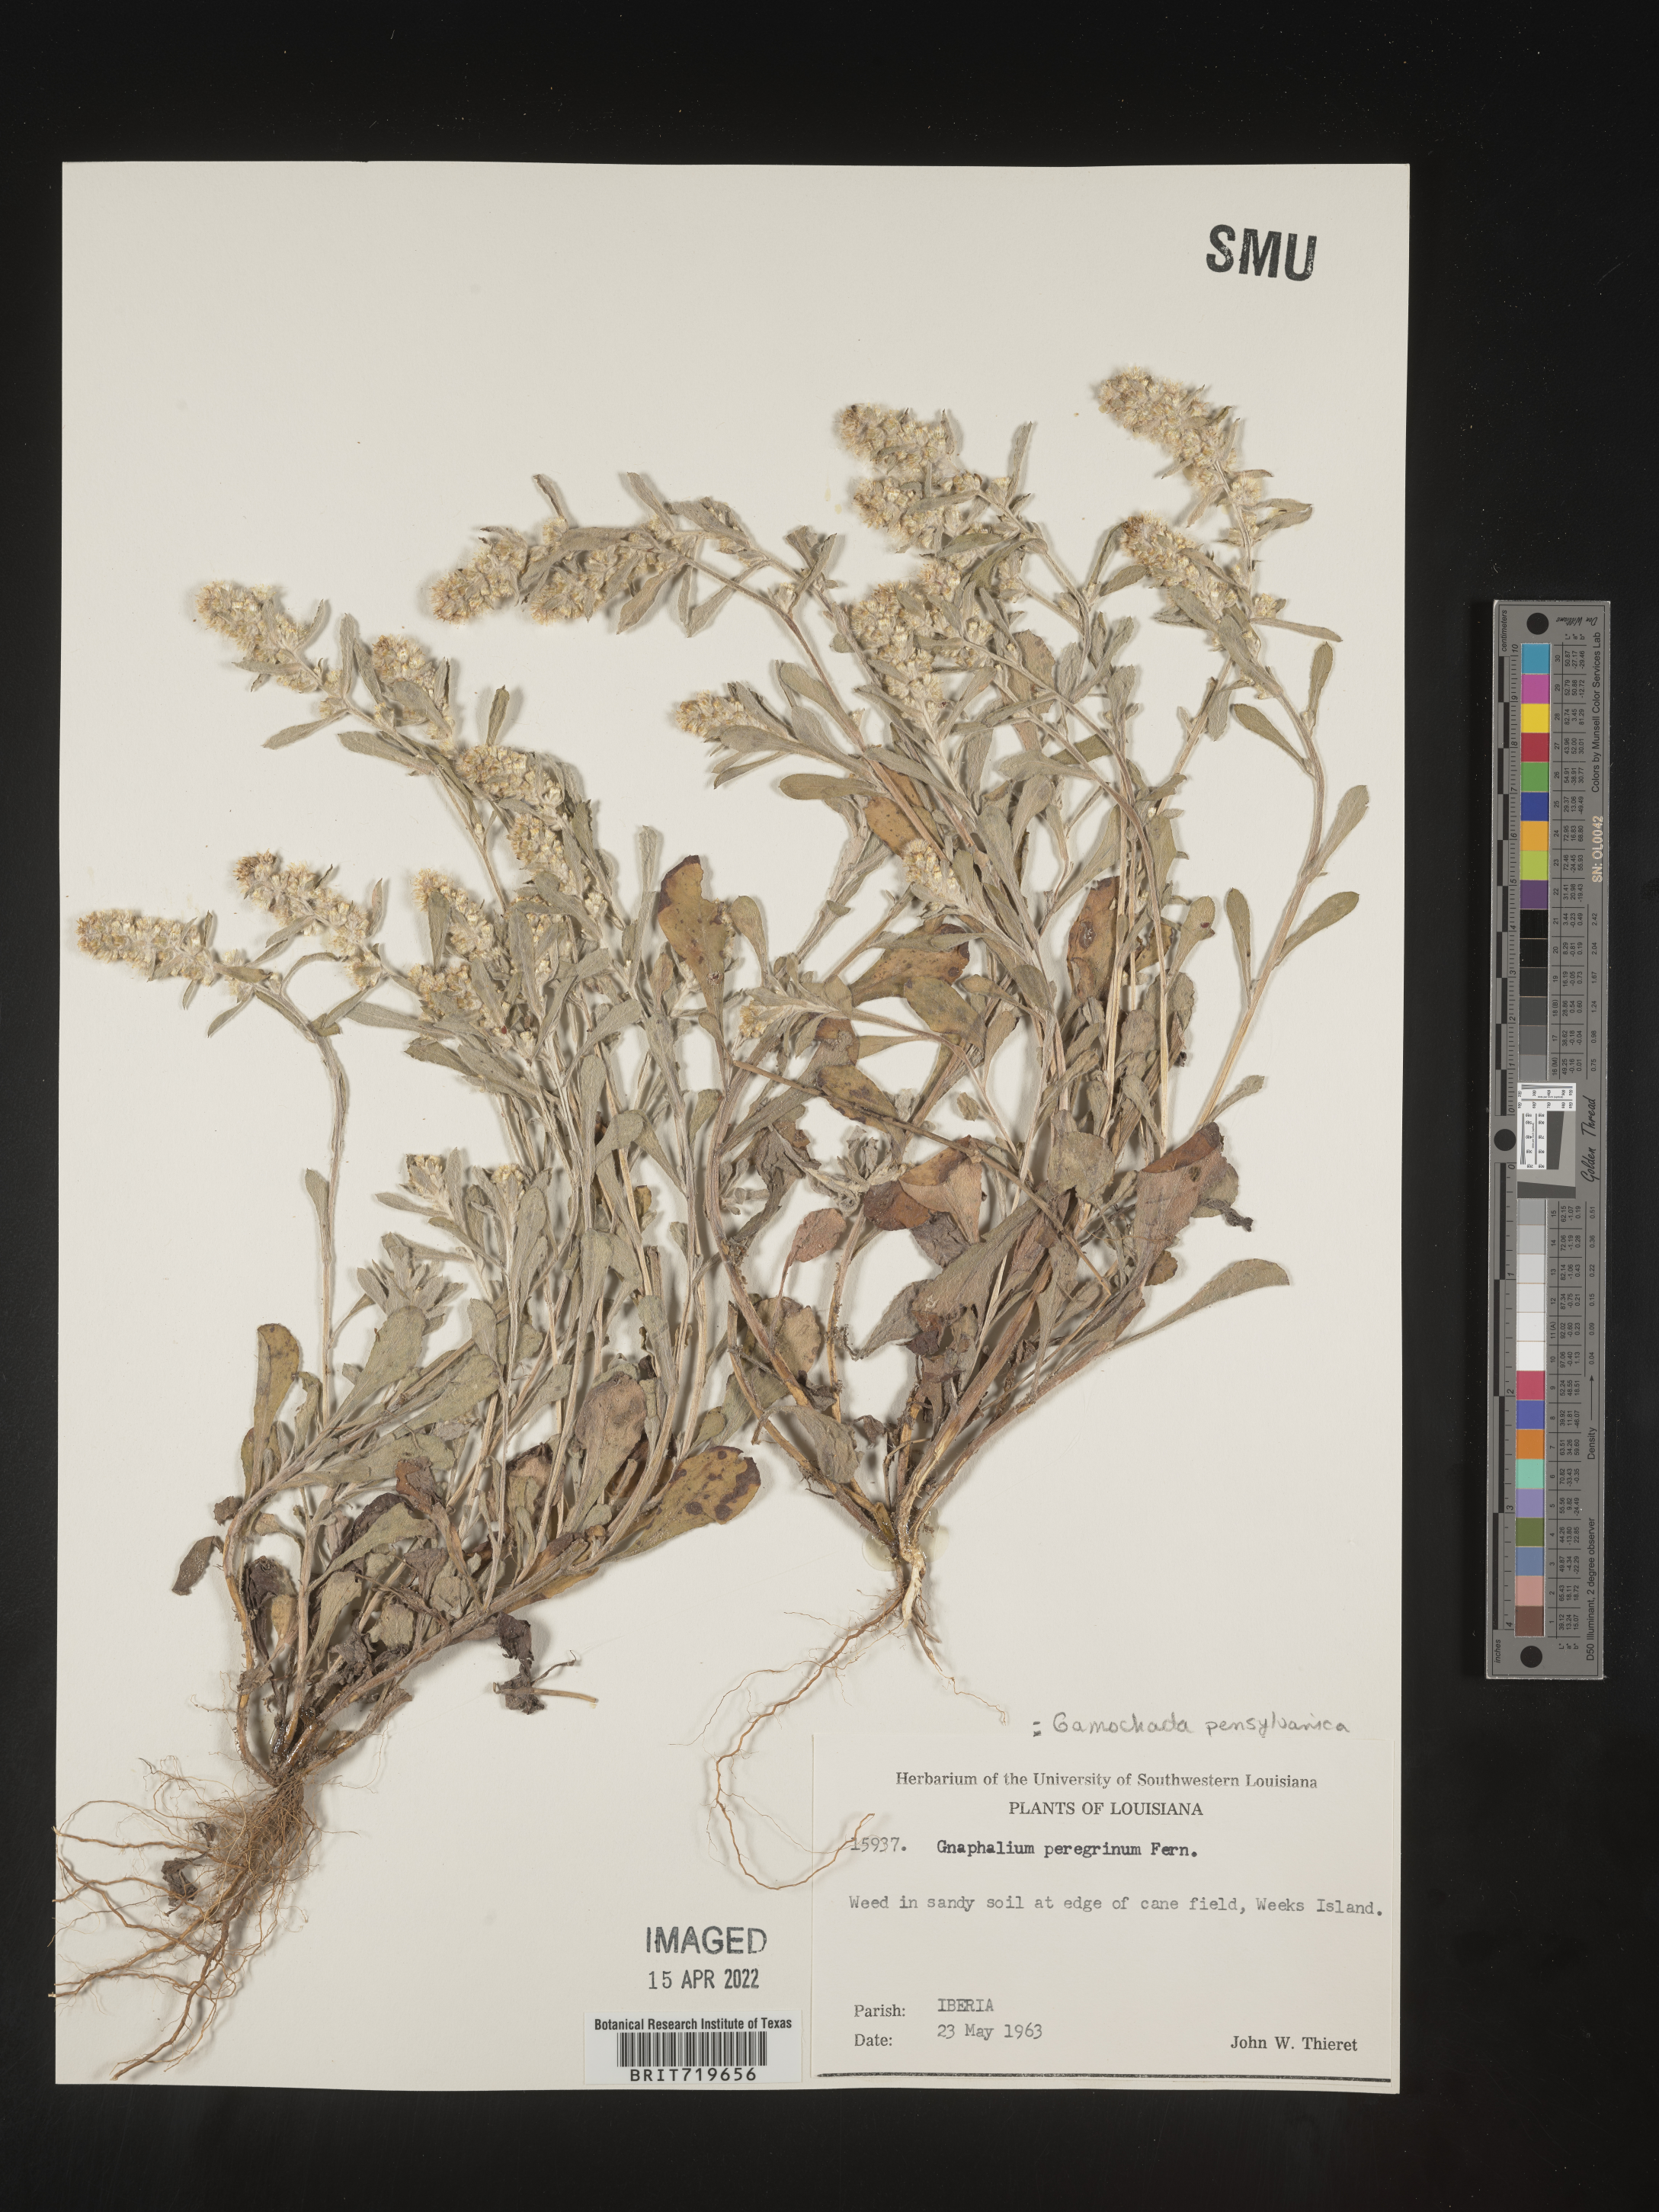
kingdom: Plantae
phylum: Tracheophyta
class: Magnoliopsida
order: Asterales
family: Asteraceae
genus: Gamochaeta
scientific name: Gamochaeta pensylvanica
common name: Pennsylvania everlasting
